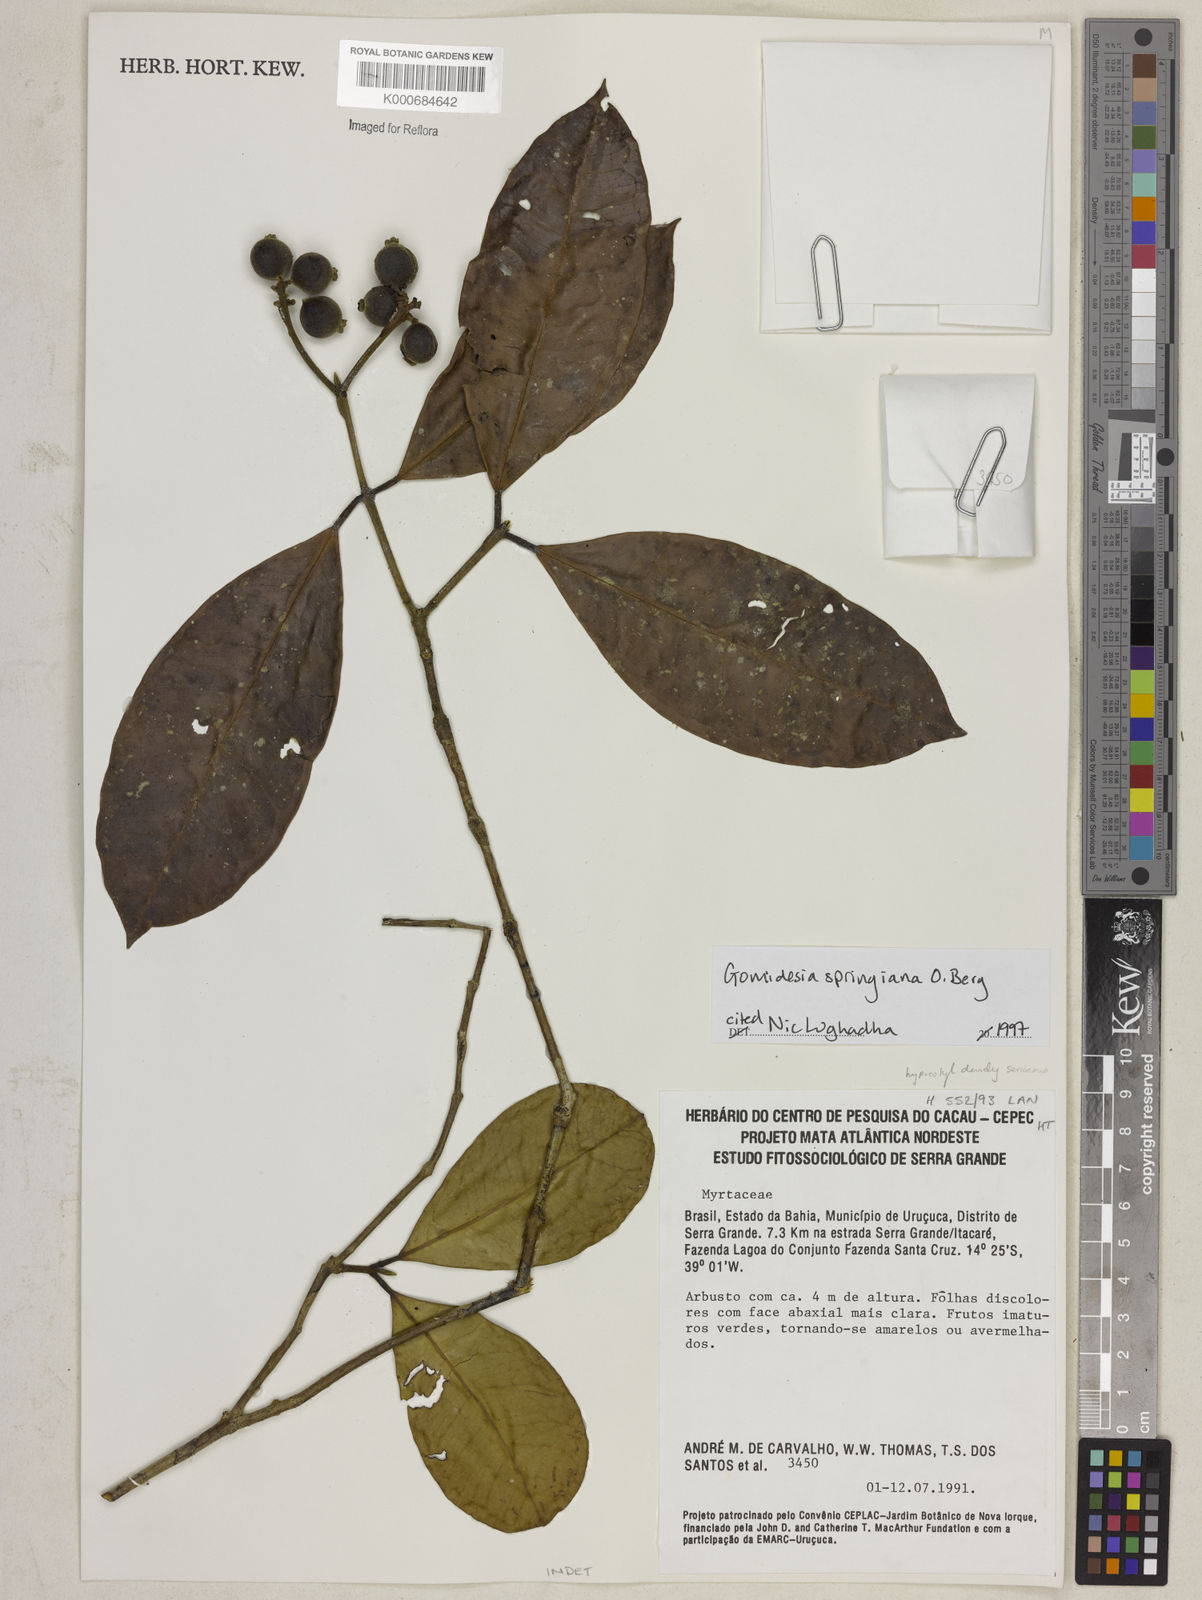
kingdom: Plantae
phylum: Tracheophyta
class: Magnoliopsida
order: Myrtales
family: Myrtaceae
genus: Myrcia
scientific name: Myrcia springiana
